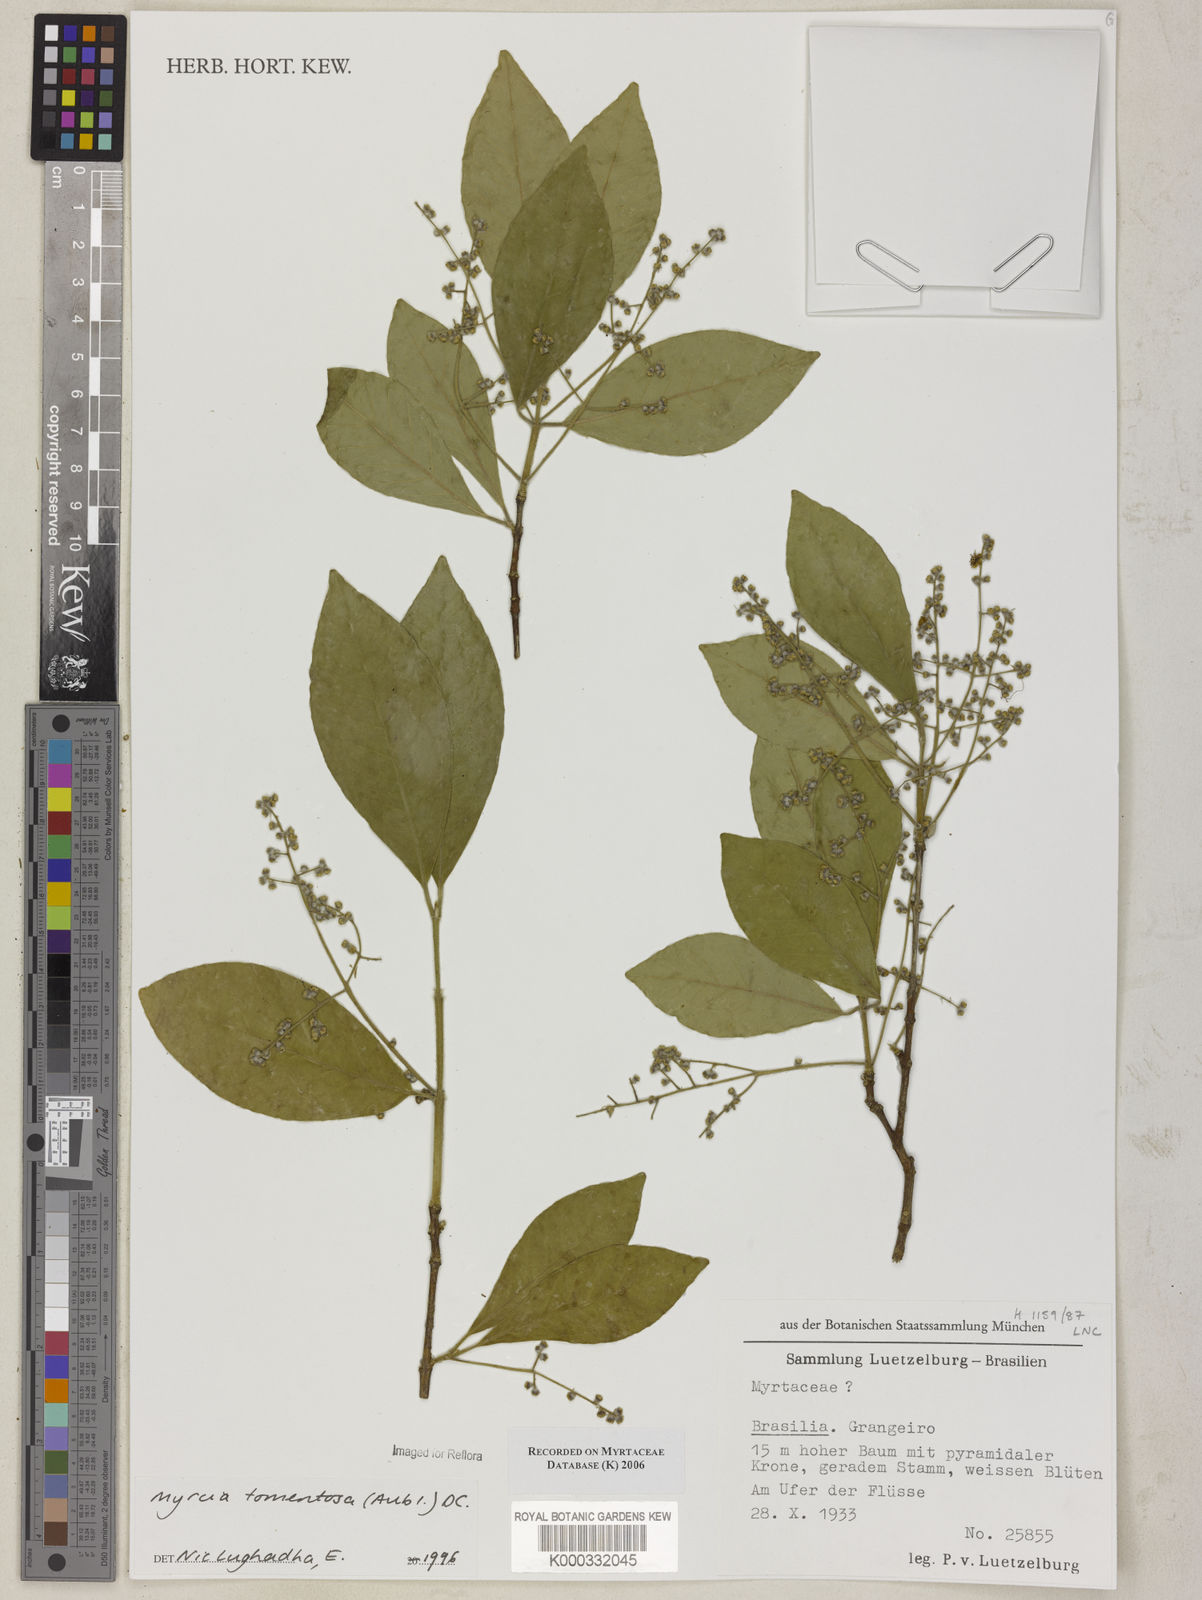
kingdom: Plantae
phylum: Tracheophyta
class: Magnoliopsida
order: Myrtales
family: Myrtaceae
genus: Myrcia
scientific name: Myrcia tomentosa
